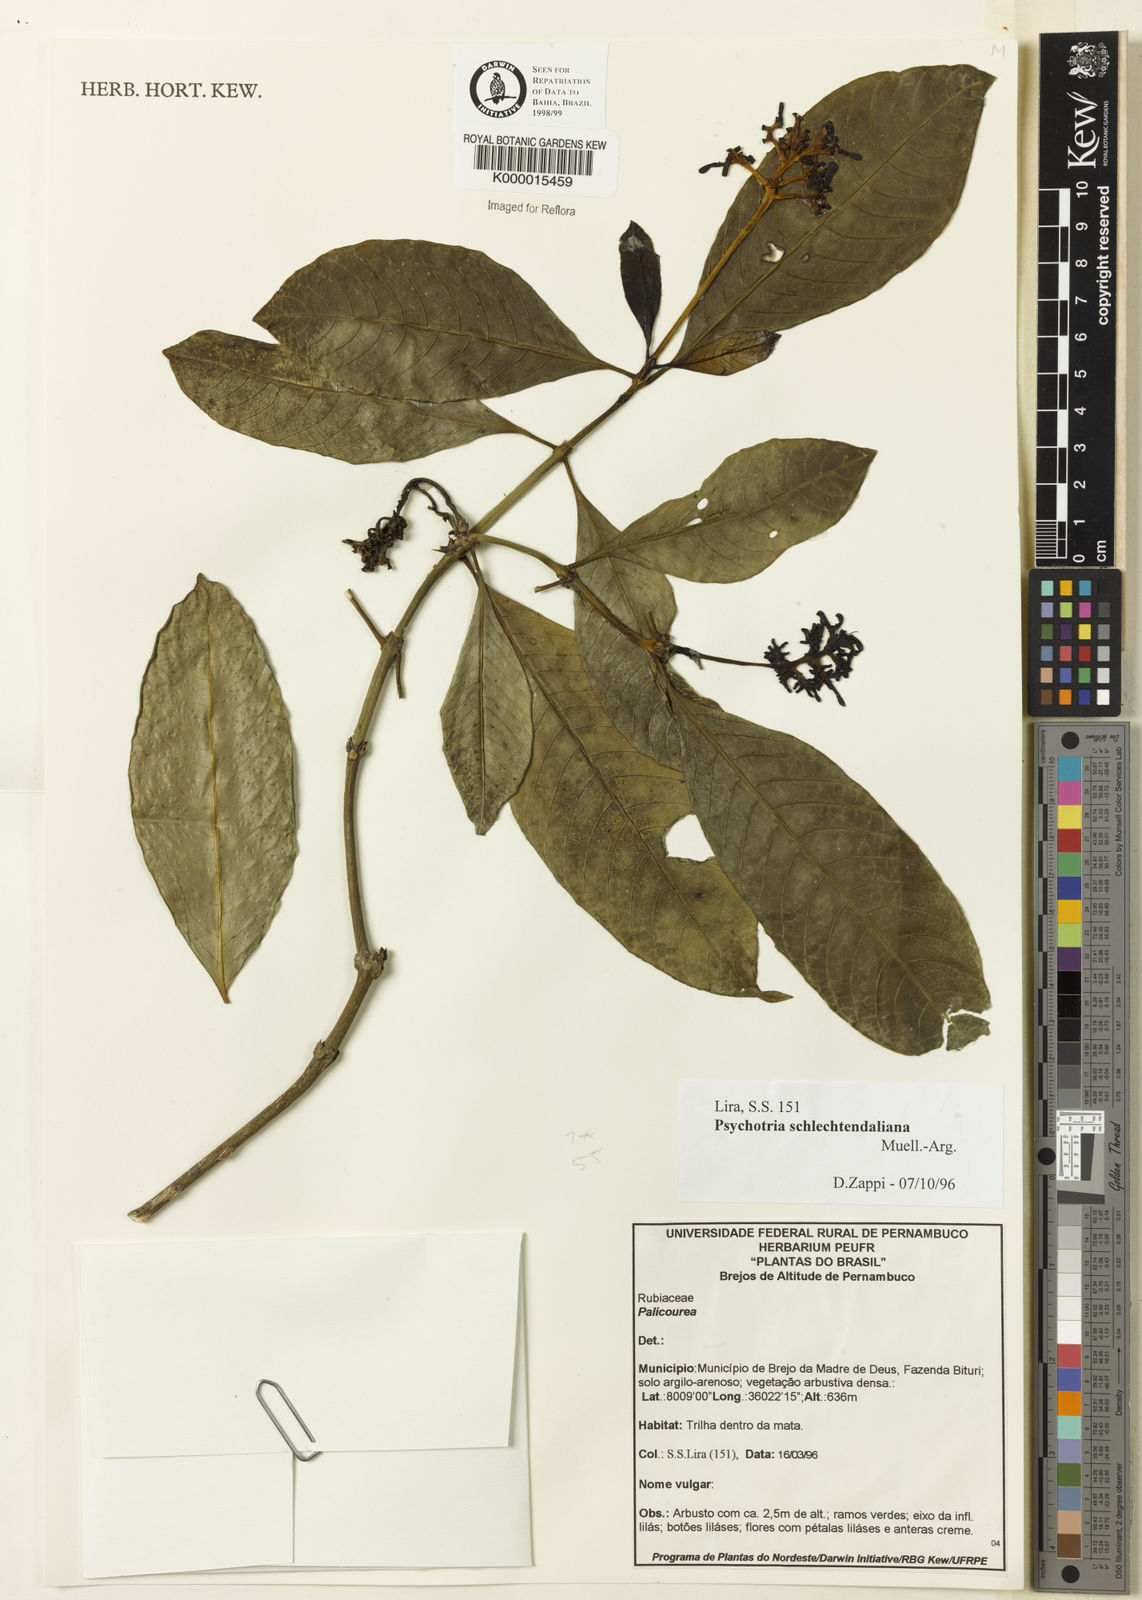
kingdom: Plantae
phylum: Tracheophyta
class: Magnoliopsida
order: Gentianales
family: Rubiaceae
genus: Palicourea
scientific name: Palicourea divaricata
